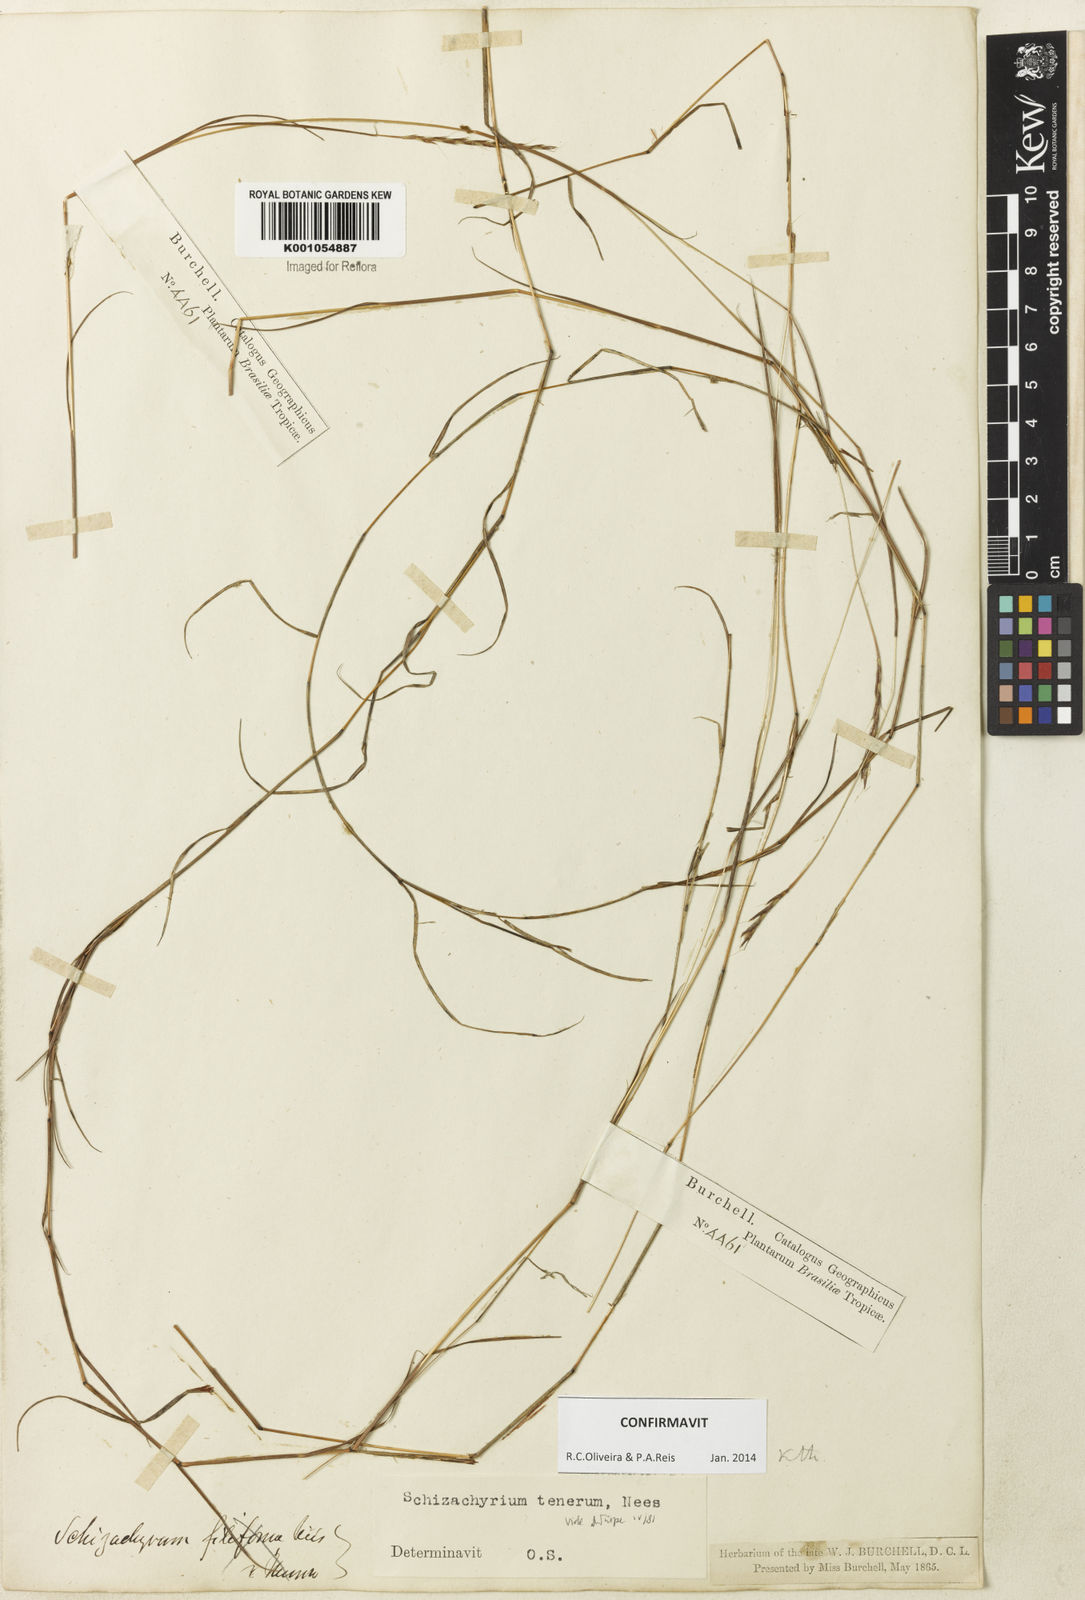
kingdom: Plantae
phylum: Tracheophyta
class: Liliopsida
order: Poales
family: Poaceae
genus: Andropogon
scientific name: Andropogon tener
